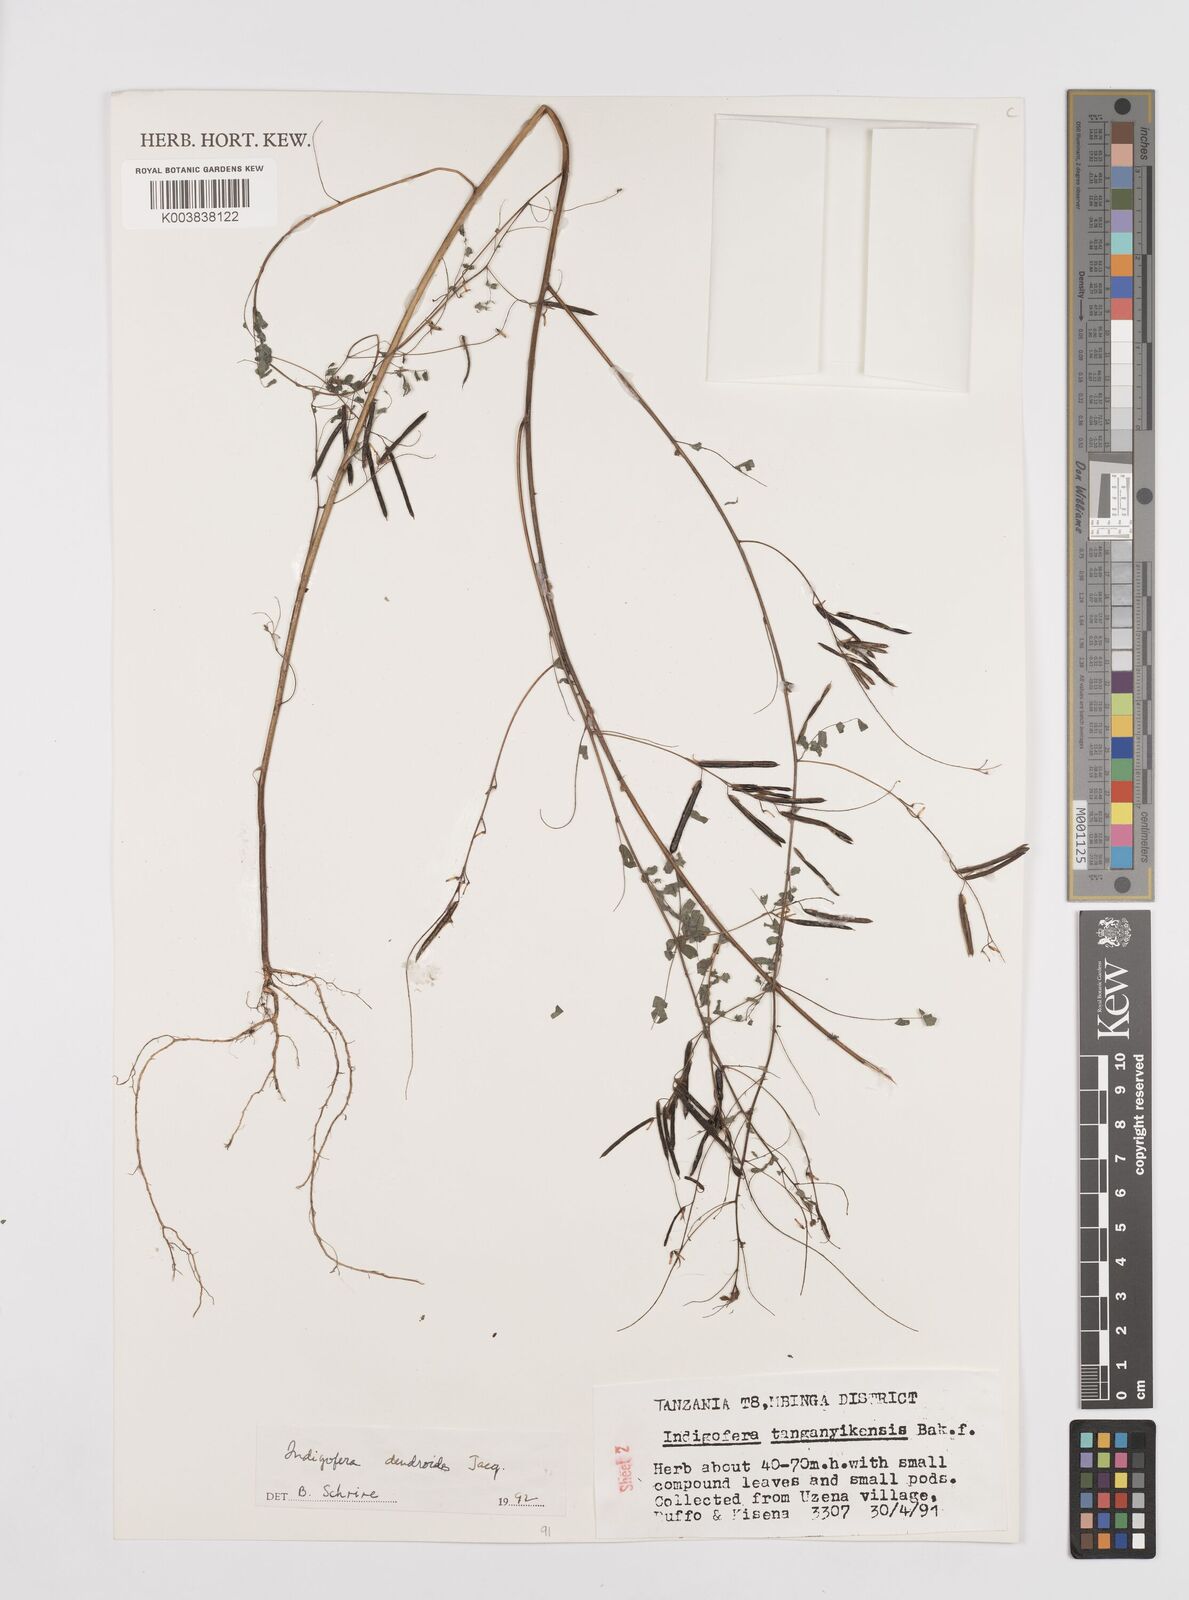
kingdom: Plantae
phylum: Tracheophyta
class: Magnoliopsida
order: Fabales
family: Fabaceae
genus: Indigofera
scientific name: Indigofera dendroides
